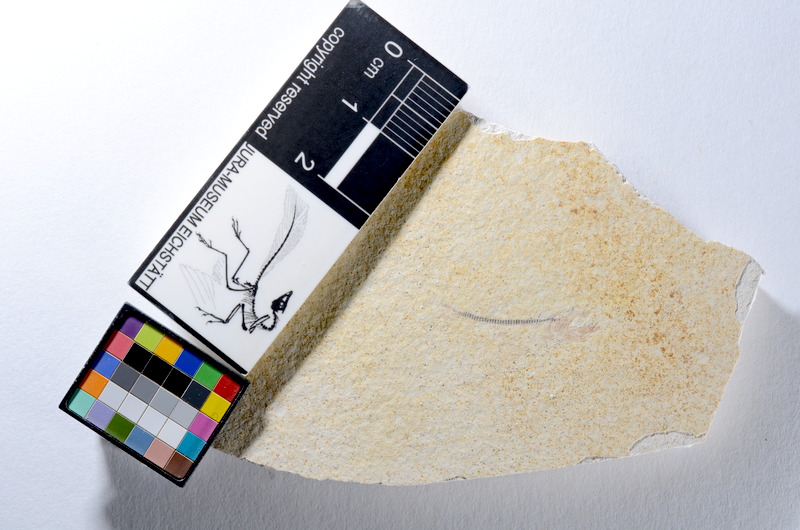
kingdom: Animalia
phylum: Chordata
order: Salmoniformes
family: Orthogonikleithridae
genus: Orthogonikleithrus
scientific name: Orthogonikleithrus hoelli
